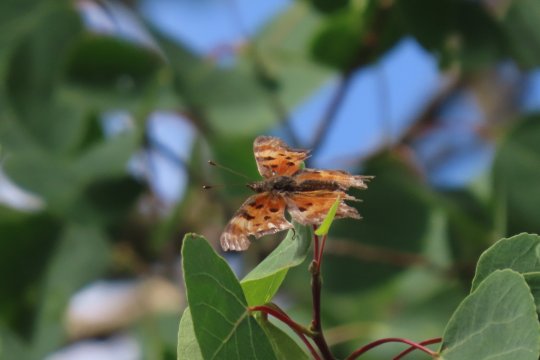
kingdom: Animalia
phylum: Arthropoda
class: Insecta
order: Lepidoptera
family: Nymphalidae
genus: Polygonia
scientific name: Polygonia gracilis
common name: Hoary Comma
